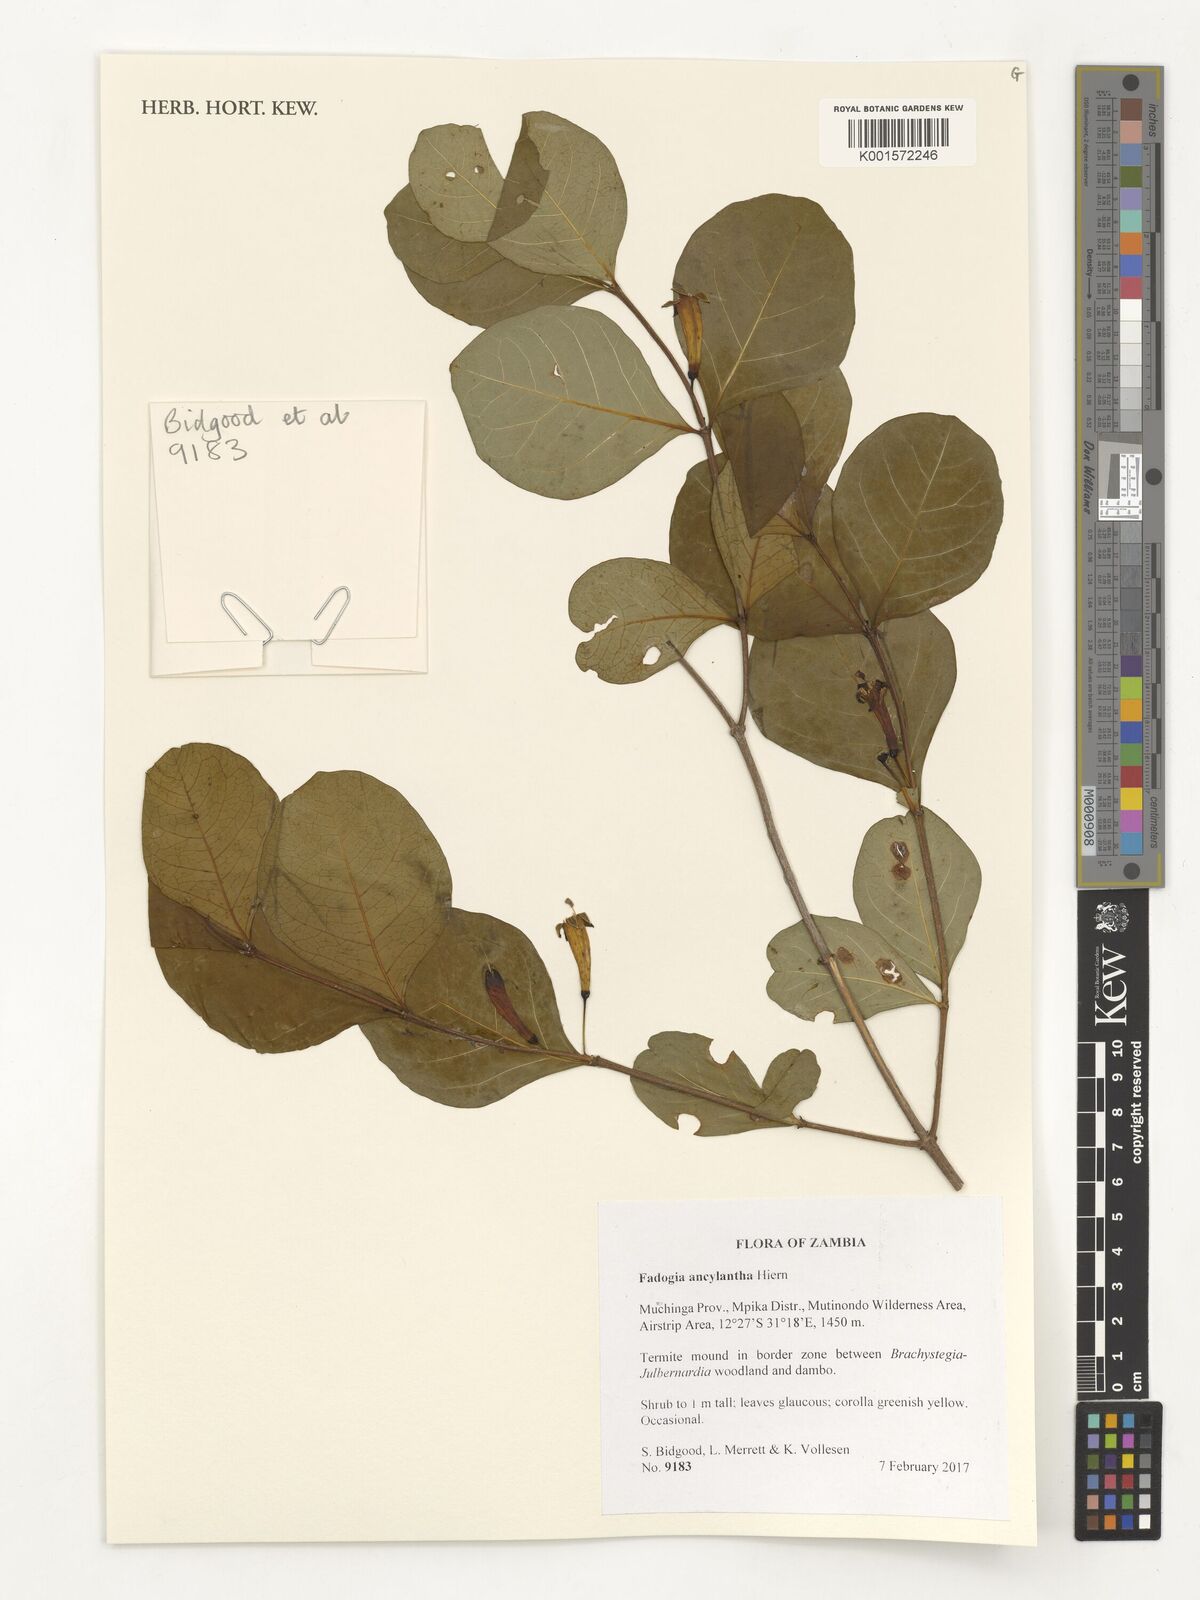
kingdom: Plantae
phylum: Tracheophyta
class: Magnoliopsida
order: Gentianales
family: Rubiaceae
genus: Fadogia
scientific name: Fadogia ancylantha
